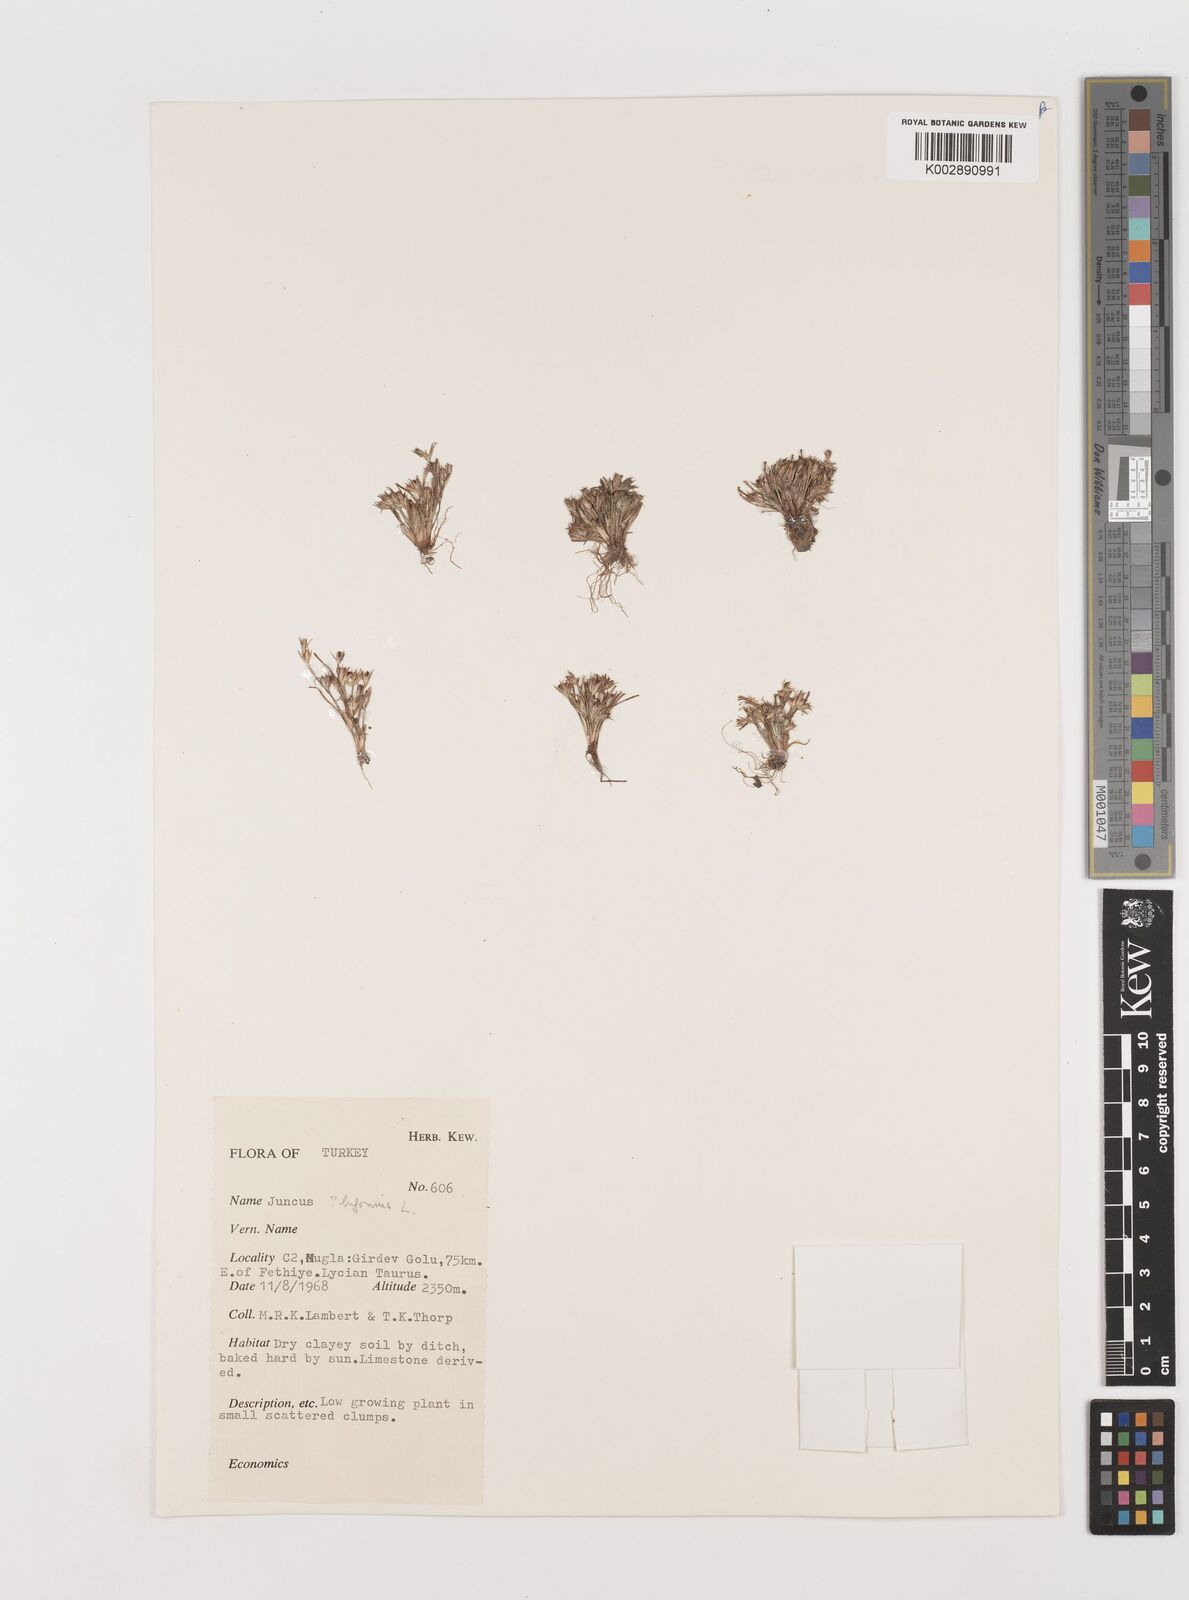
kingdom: Plantae
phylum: Tracheophyta
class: Liliopsida
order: Poales
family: Juncaceae
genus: Juncus
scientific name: Juncus bufonius
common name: Toad rush
